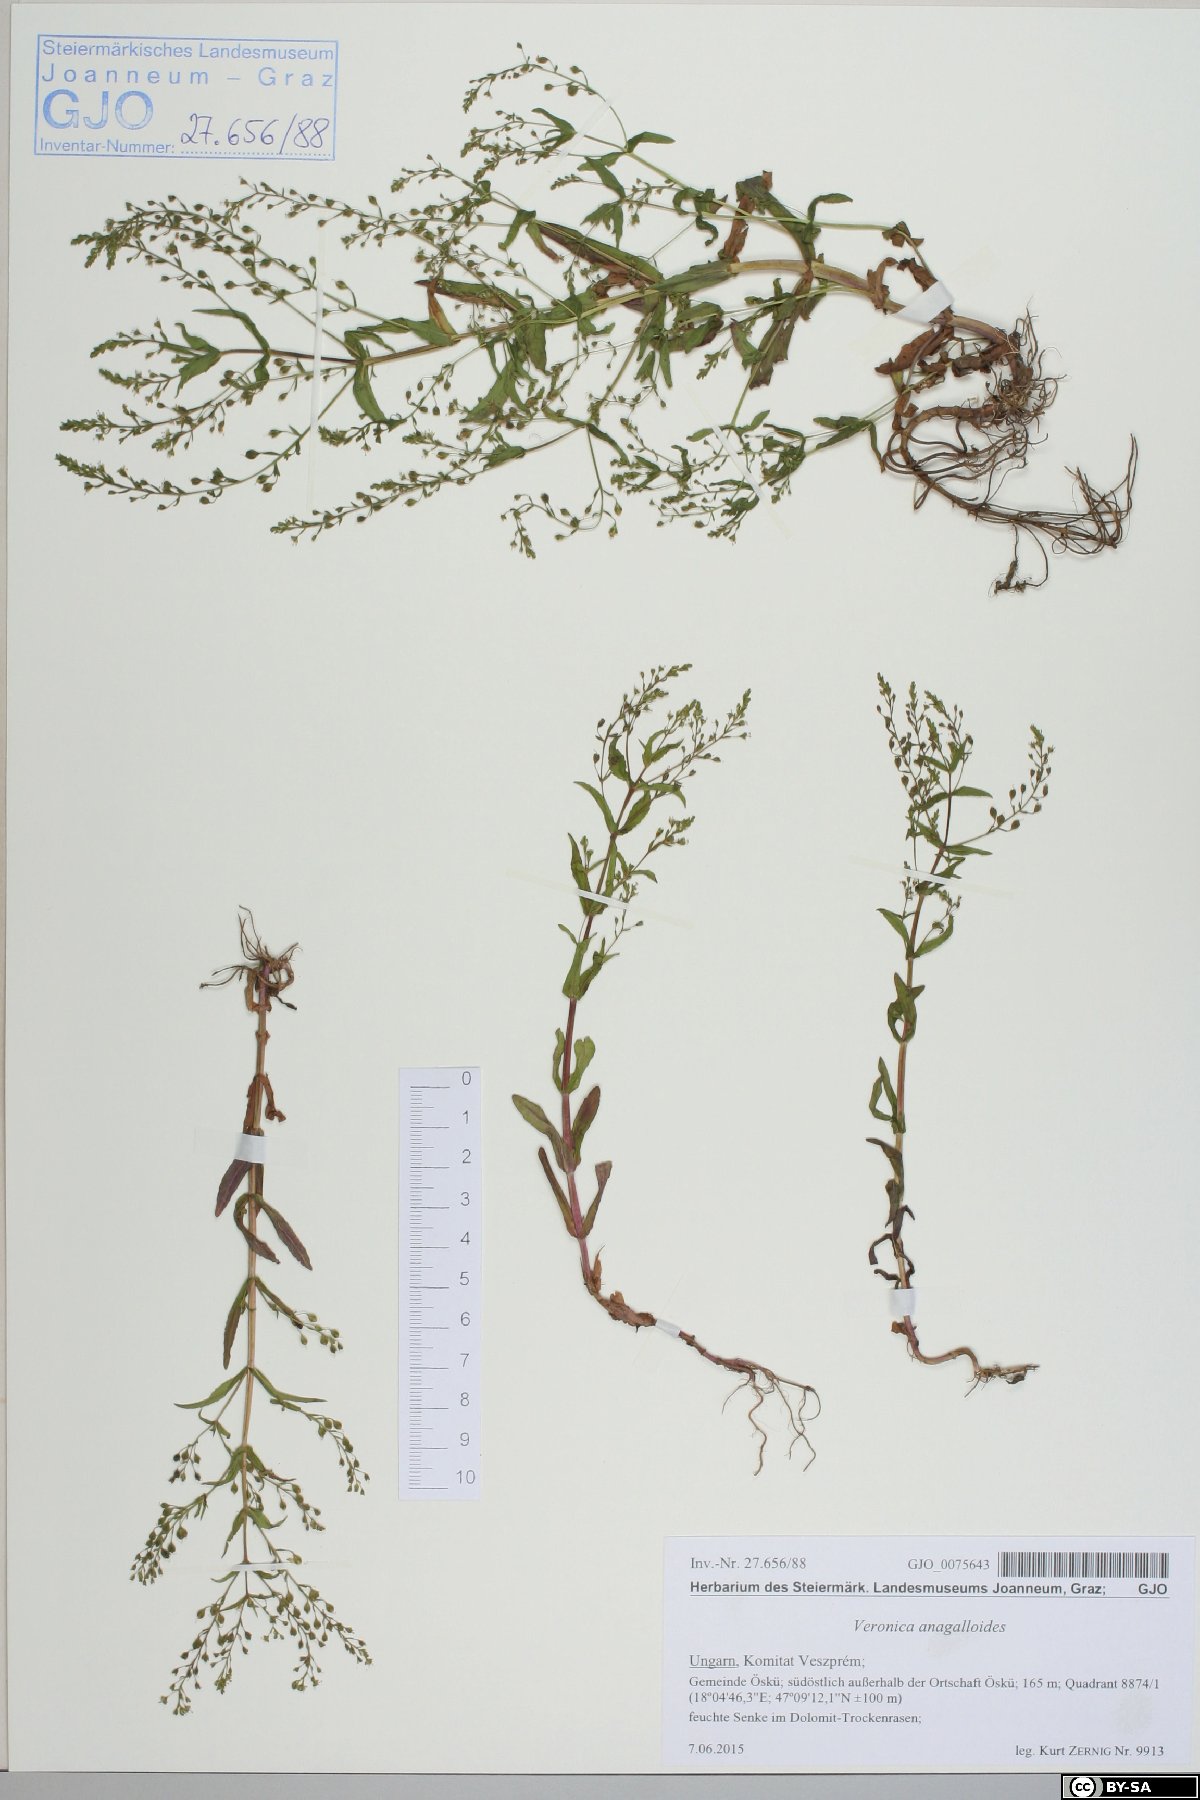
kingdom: Plantae
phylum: Tracheophyta
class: Magnoliopsida
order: Lamiales
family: Plantaginaceae
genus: Veronica
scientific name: Veronica anagalloides
